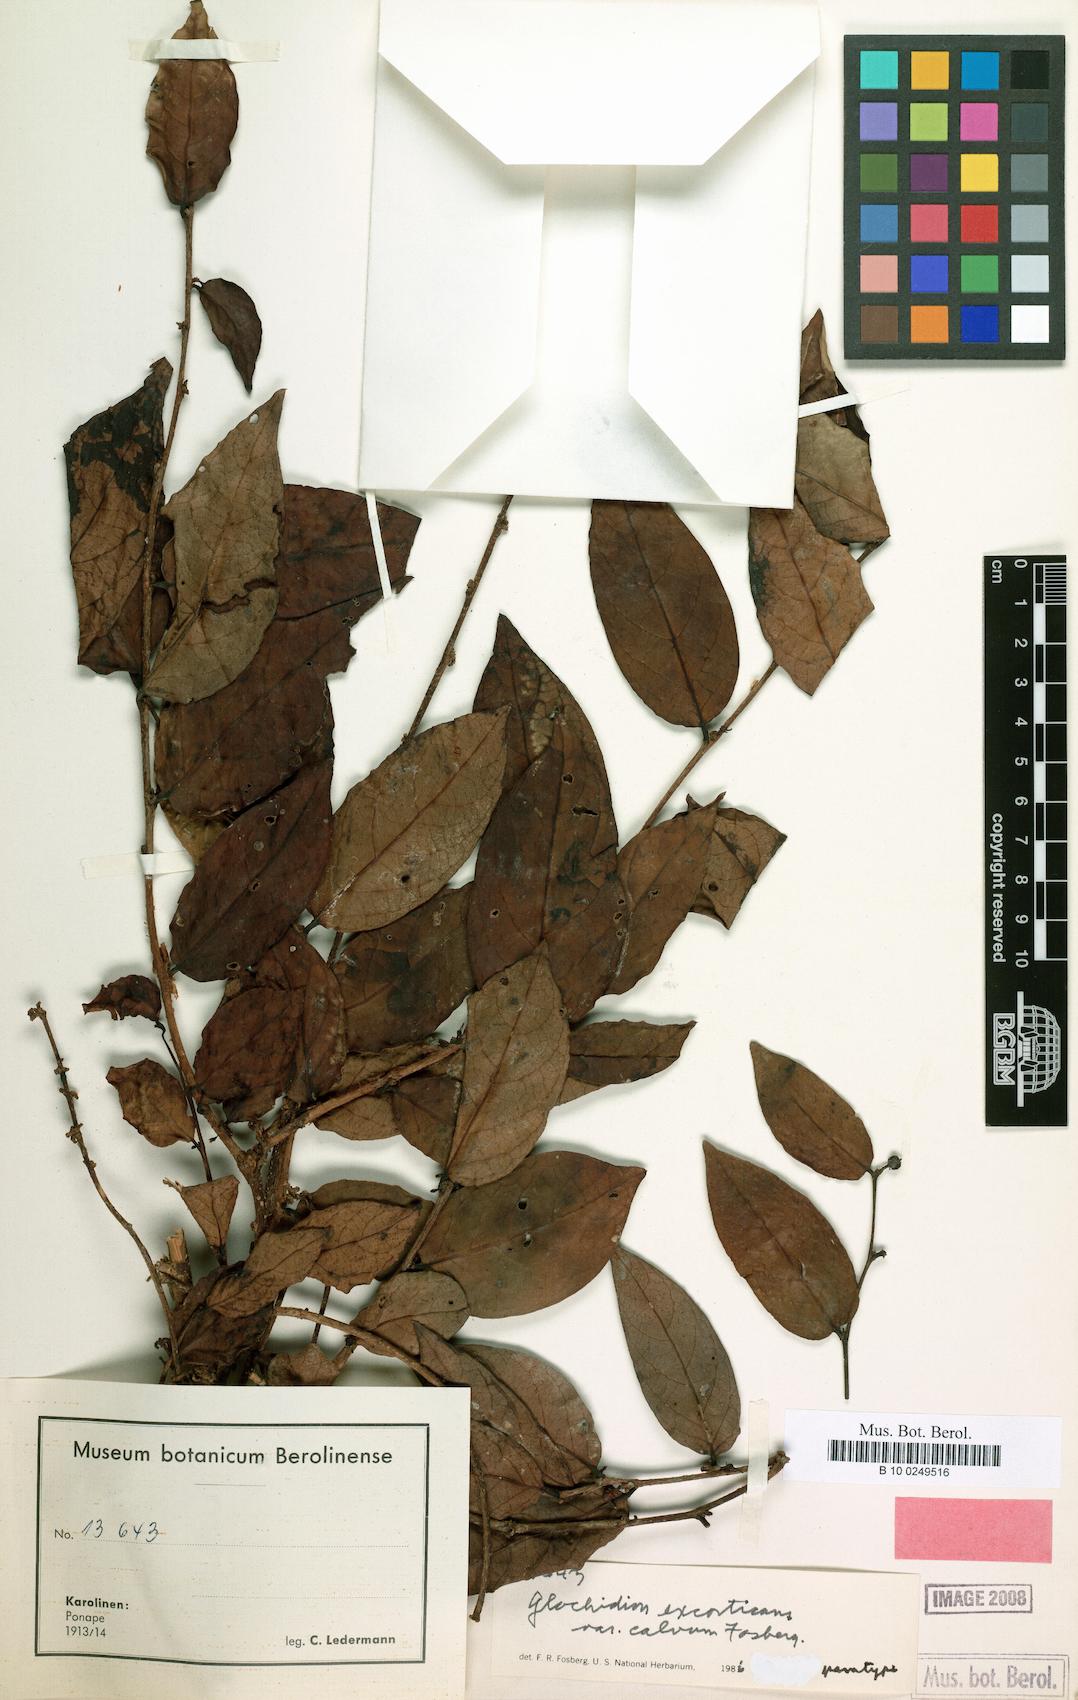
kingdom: Plantae
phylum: Tracheophyta
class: Magnoliopsida
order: Malpighiales
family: Phyllanthaceae
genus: Glochidion
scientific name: Glochidion ponapense
